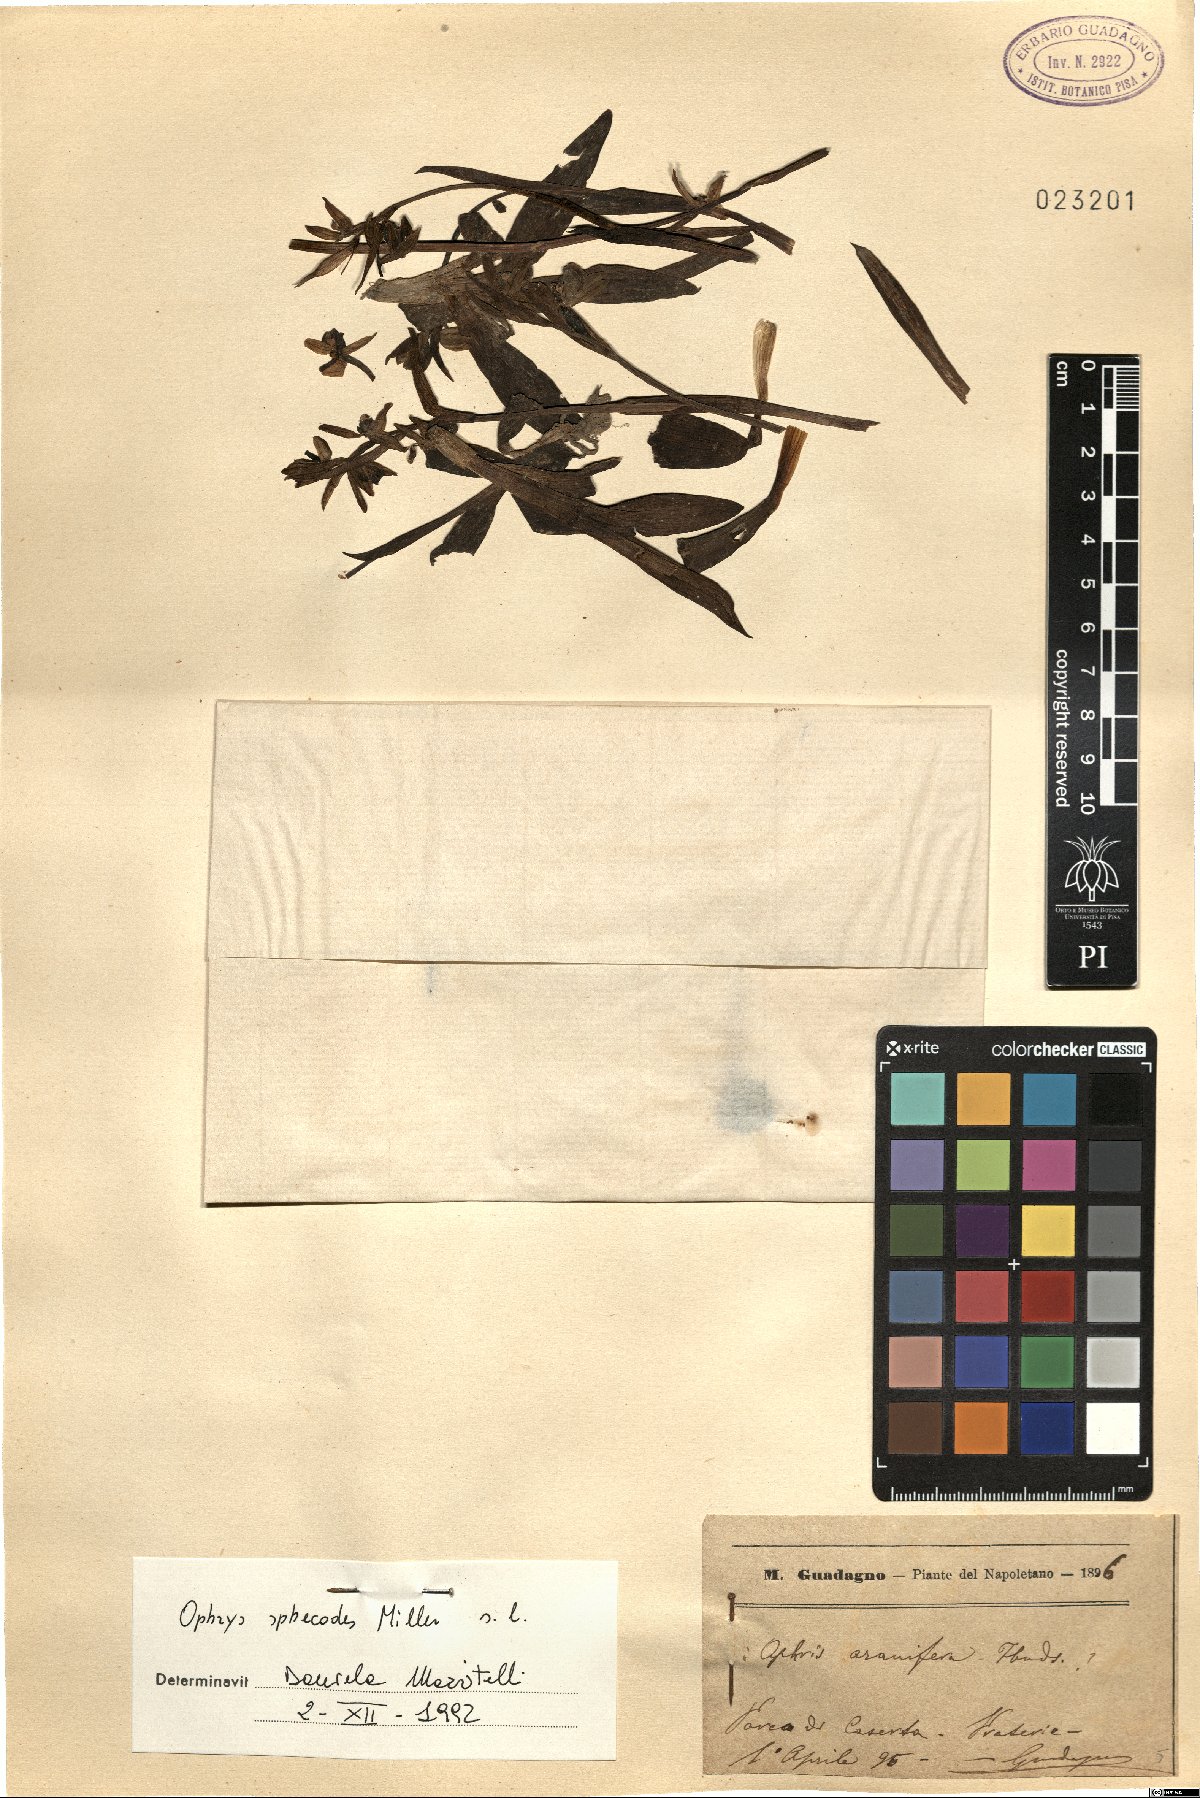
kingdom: Plantae
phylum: Tracheophyta
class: Liliopsida
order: Asparagales
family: Orchidaceae
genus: Ophrys
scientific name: Ophrys sphegodes
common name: Early spider-orchid
